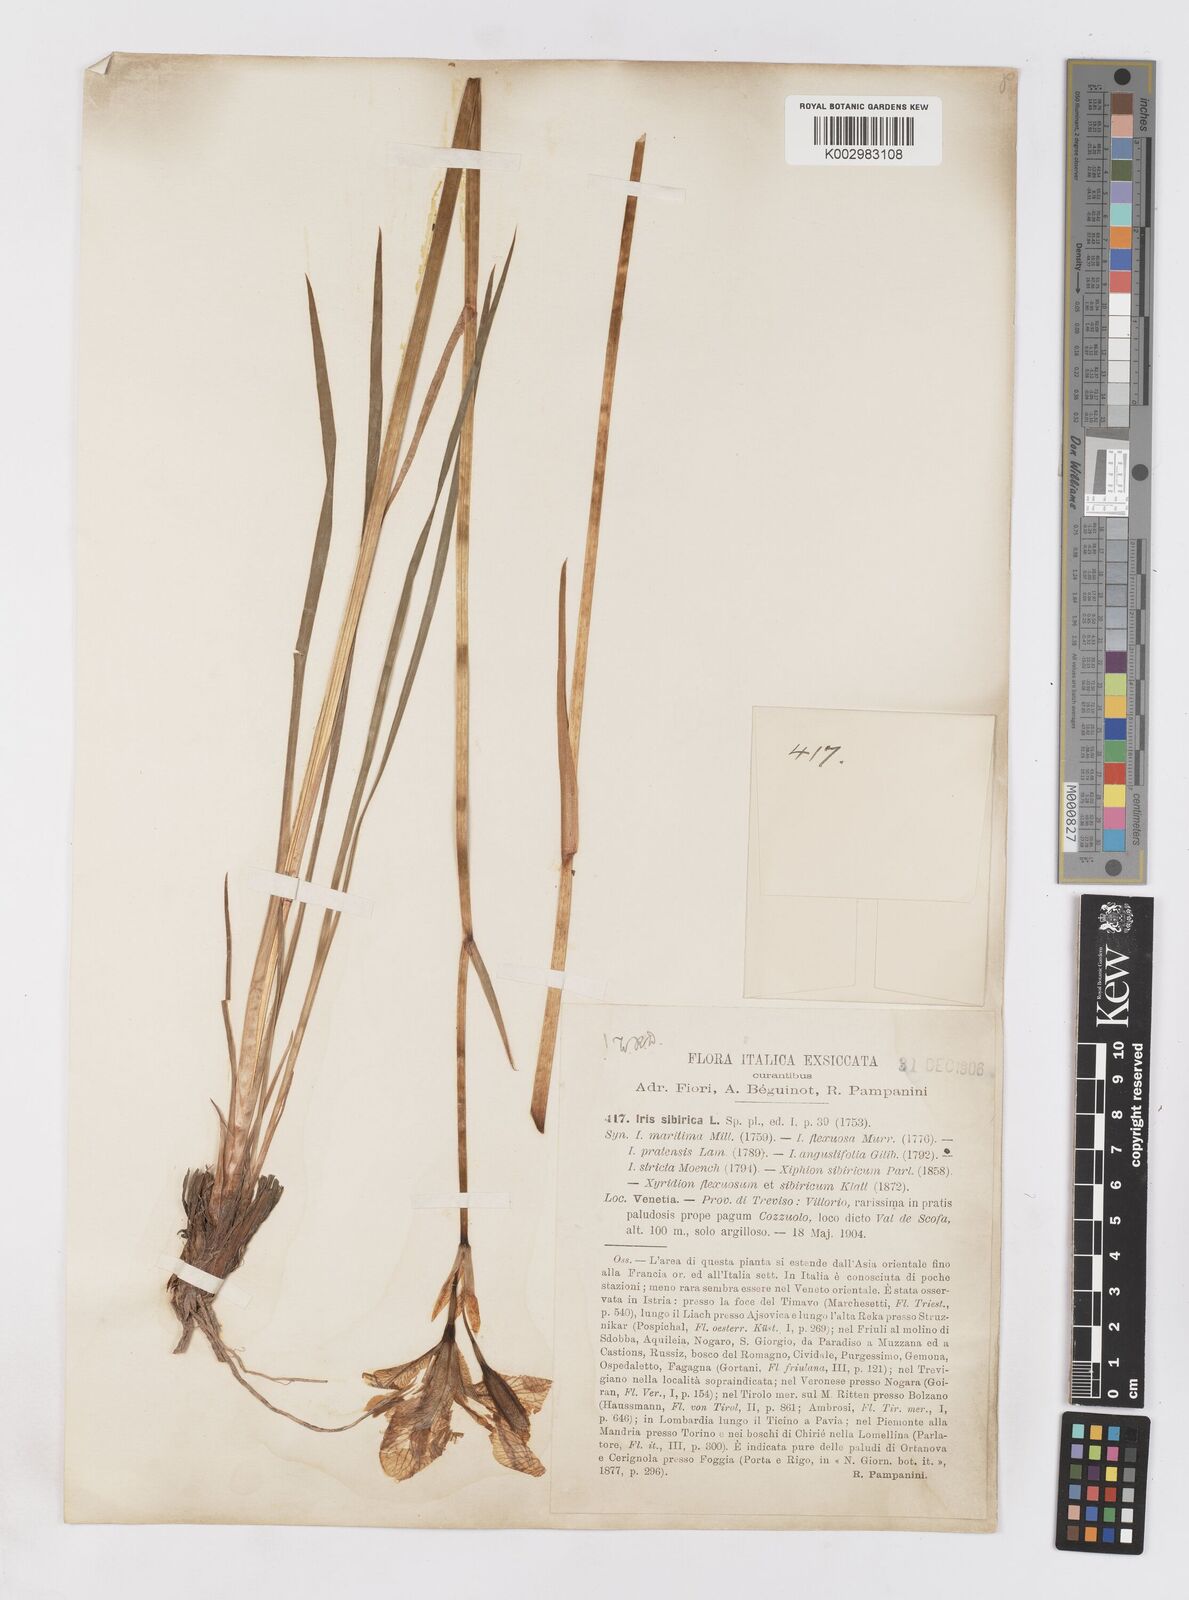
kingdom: Plantae
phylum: Tracheophyta
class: Liliopsida
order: Asparagales
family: Iridaceae
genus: Iris
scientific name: Iris sibirica
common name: Siberian iris
